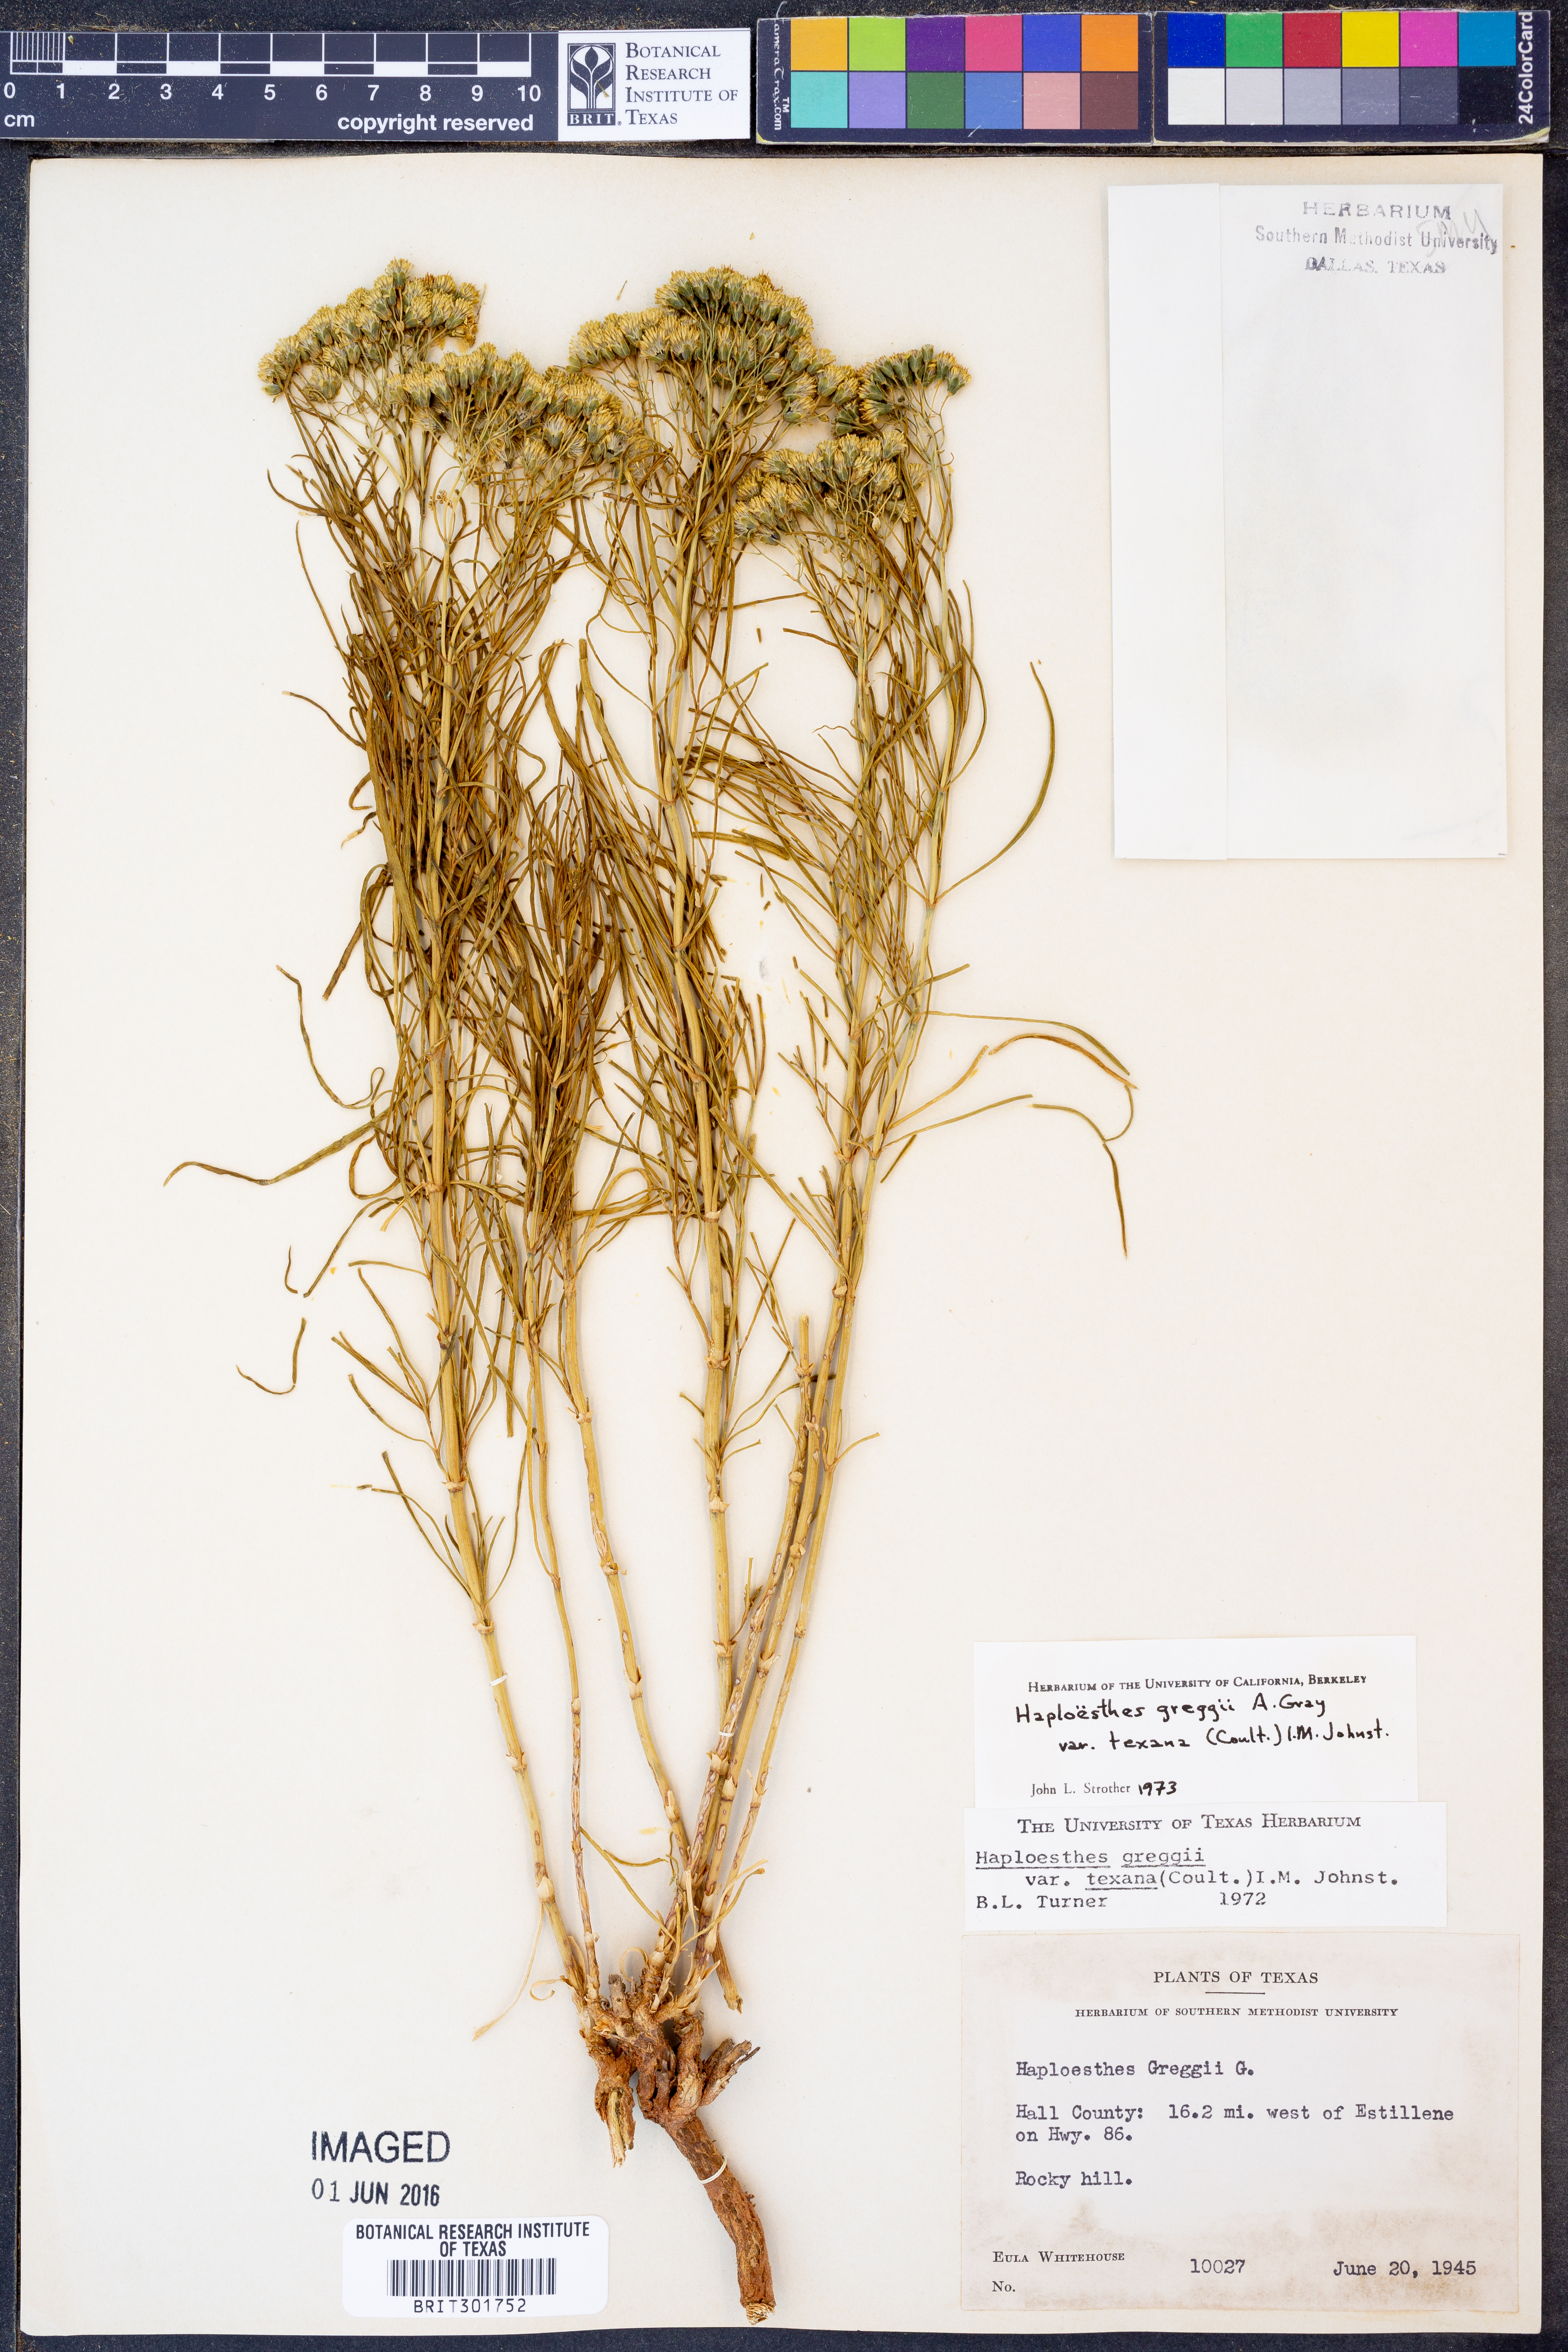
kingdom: Plantae
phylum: Tracheophyta
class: Magnoliopsida
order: Asterales
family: Asteraceae
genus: Haploesthes
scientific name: Haploesthes greggii
